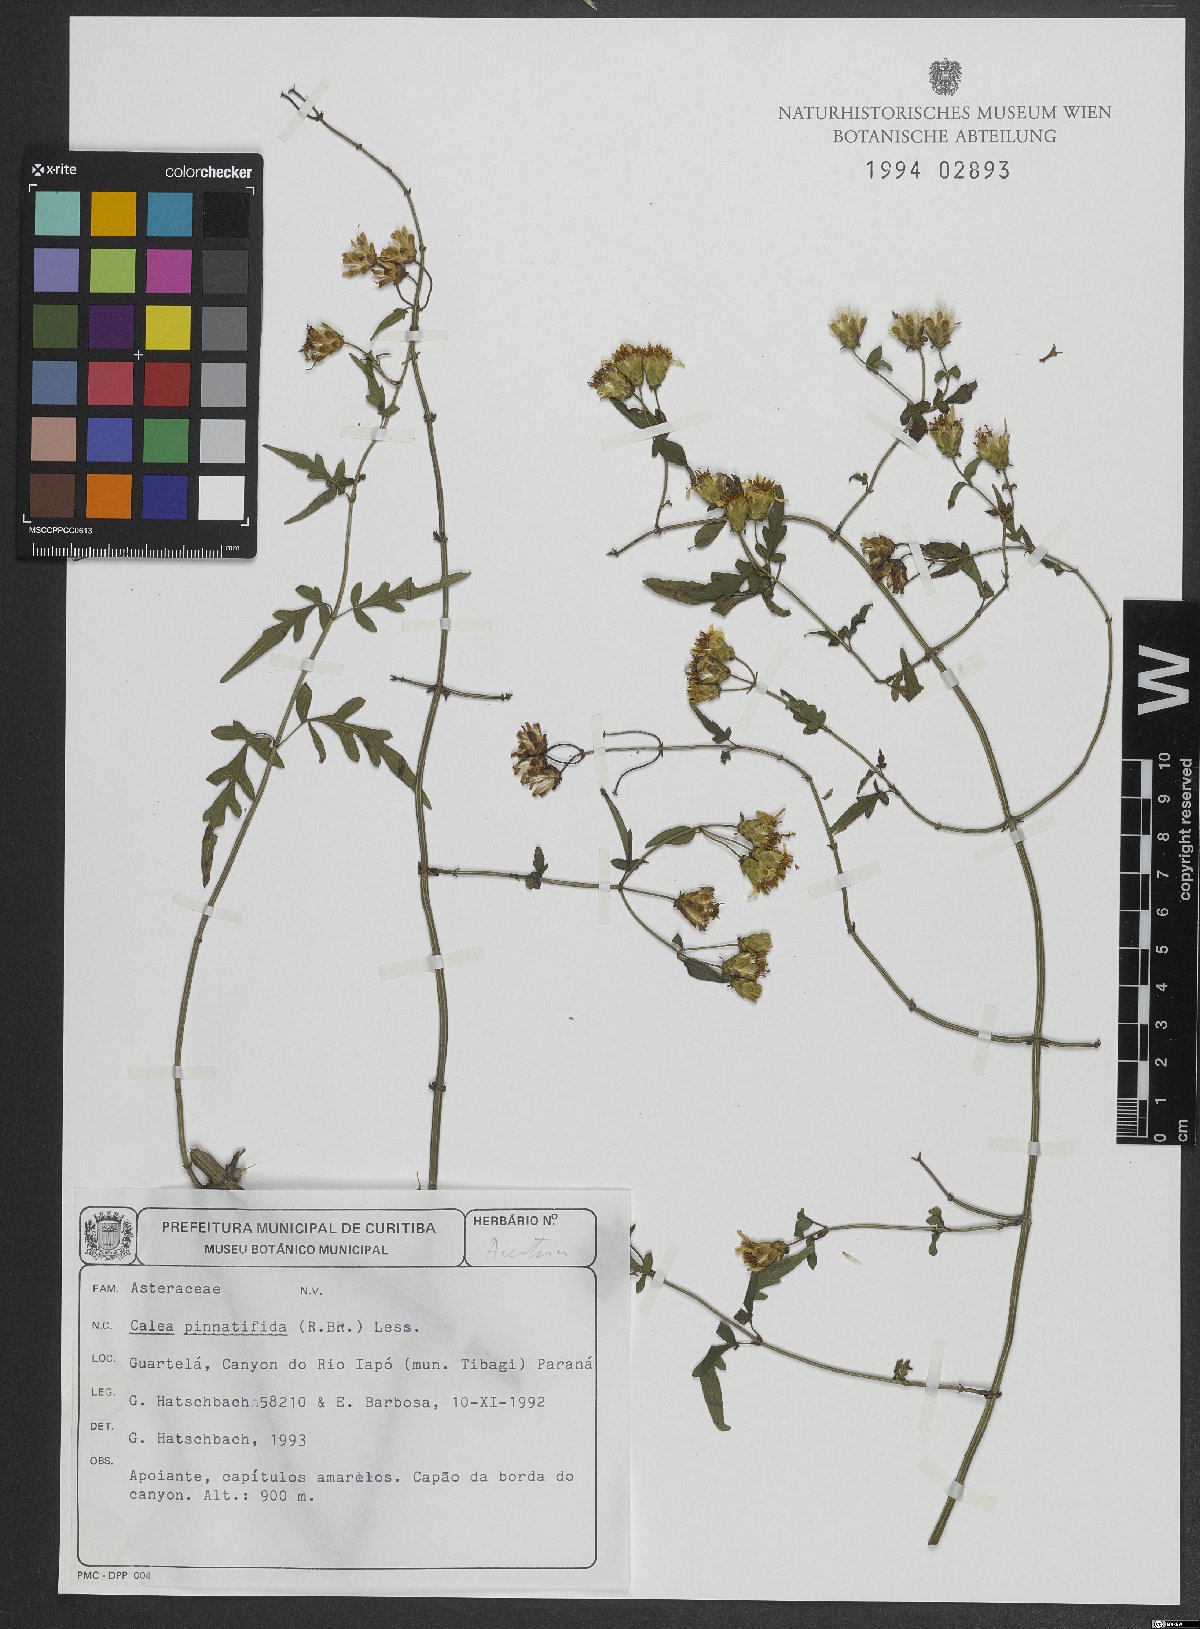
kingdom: Plantae
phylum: Tracheophyta
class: Magnoliopsida
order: Asterales
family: Asteraceae
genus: Calea
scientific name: Calea pinnatifida
